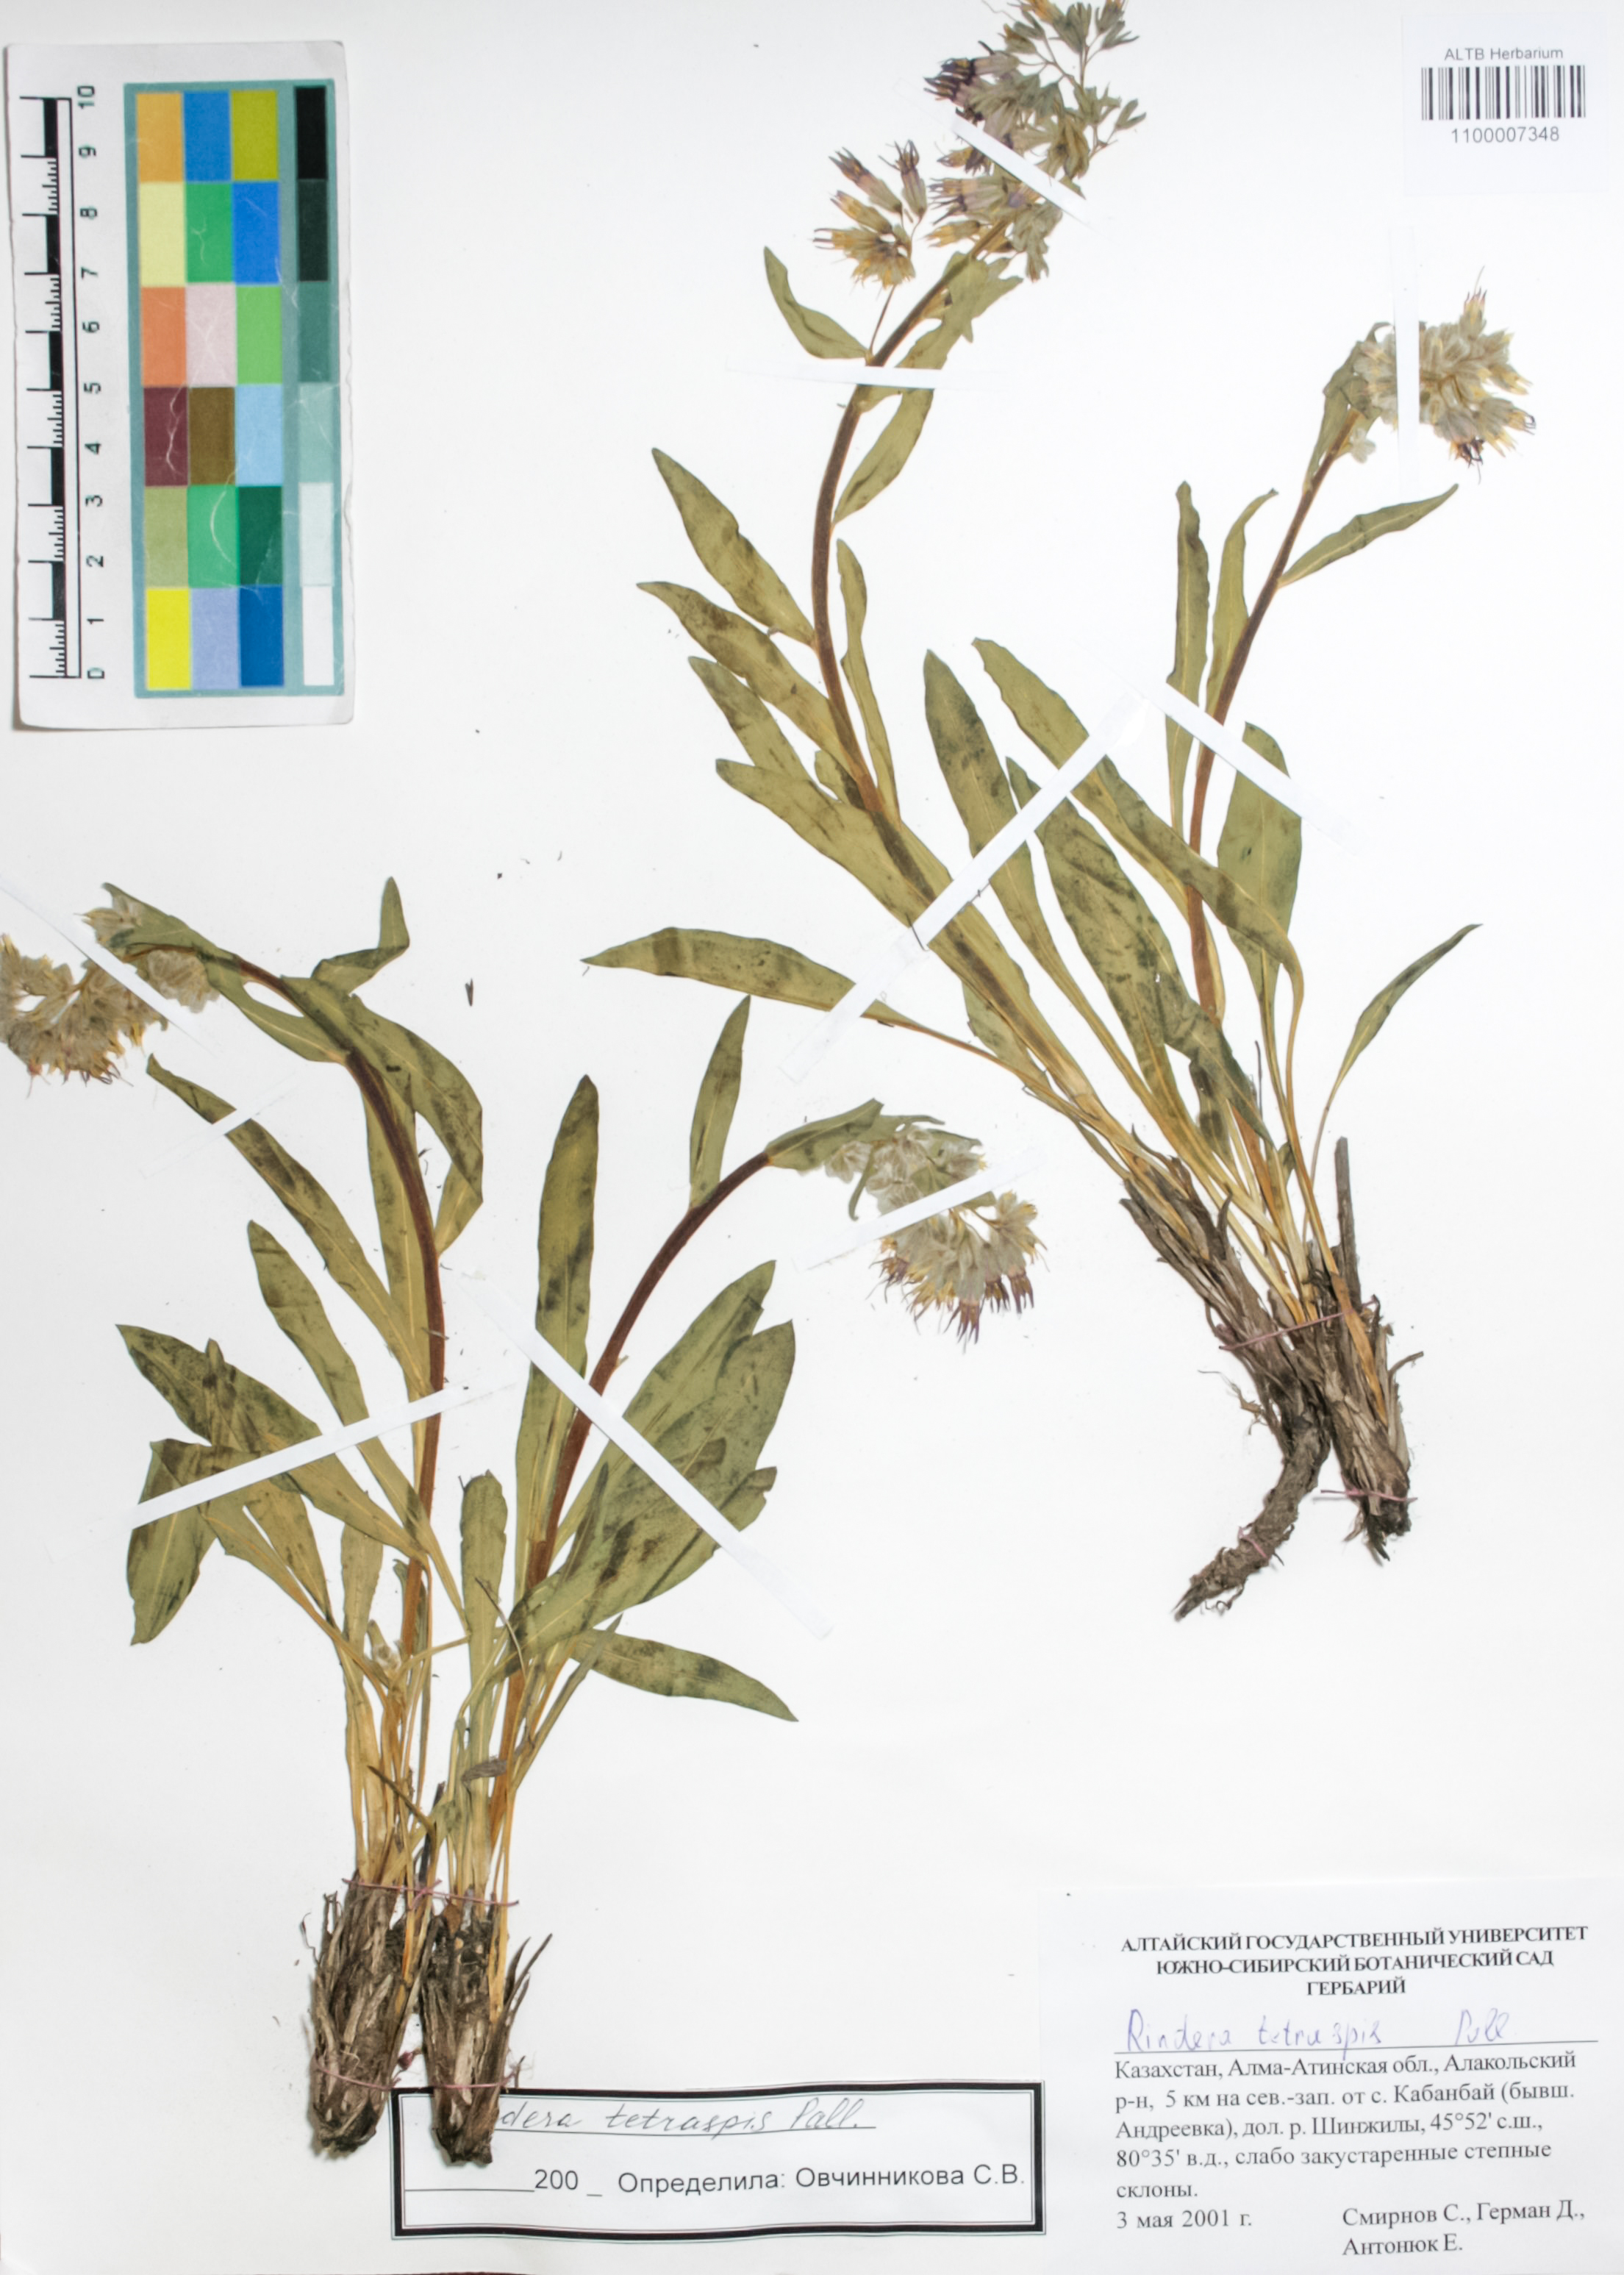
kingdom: Plantae
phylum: Tracheophyta
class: Magnoliopsida
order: Boraginales
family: Boraginaceae
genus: Rindera
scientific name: Rindera tetraspis
